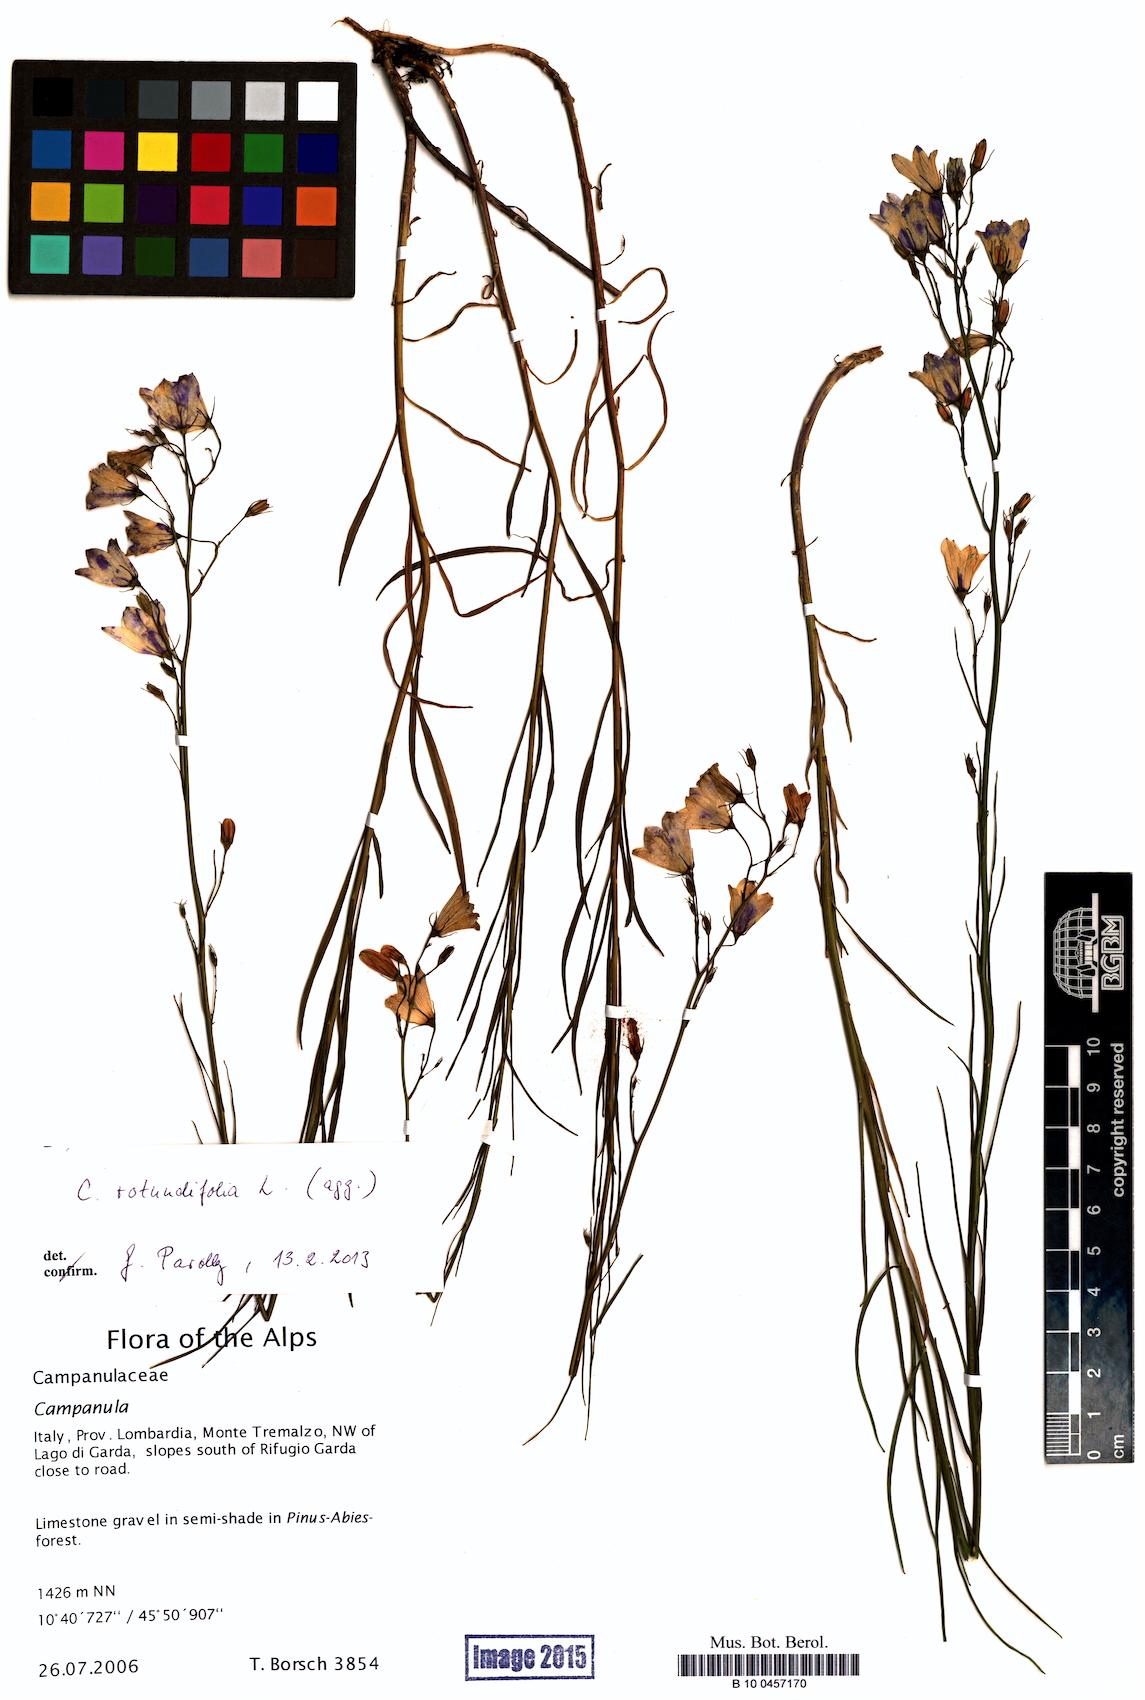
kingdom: Plantae
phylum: Tracheophyta
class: Magnoliopsida
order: Asterales
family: Campanulaceae
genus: Campanula
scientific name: Campanula rotundifolia
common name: Harebell
